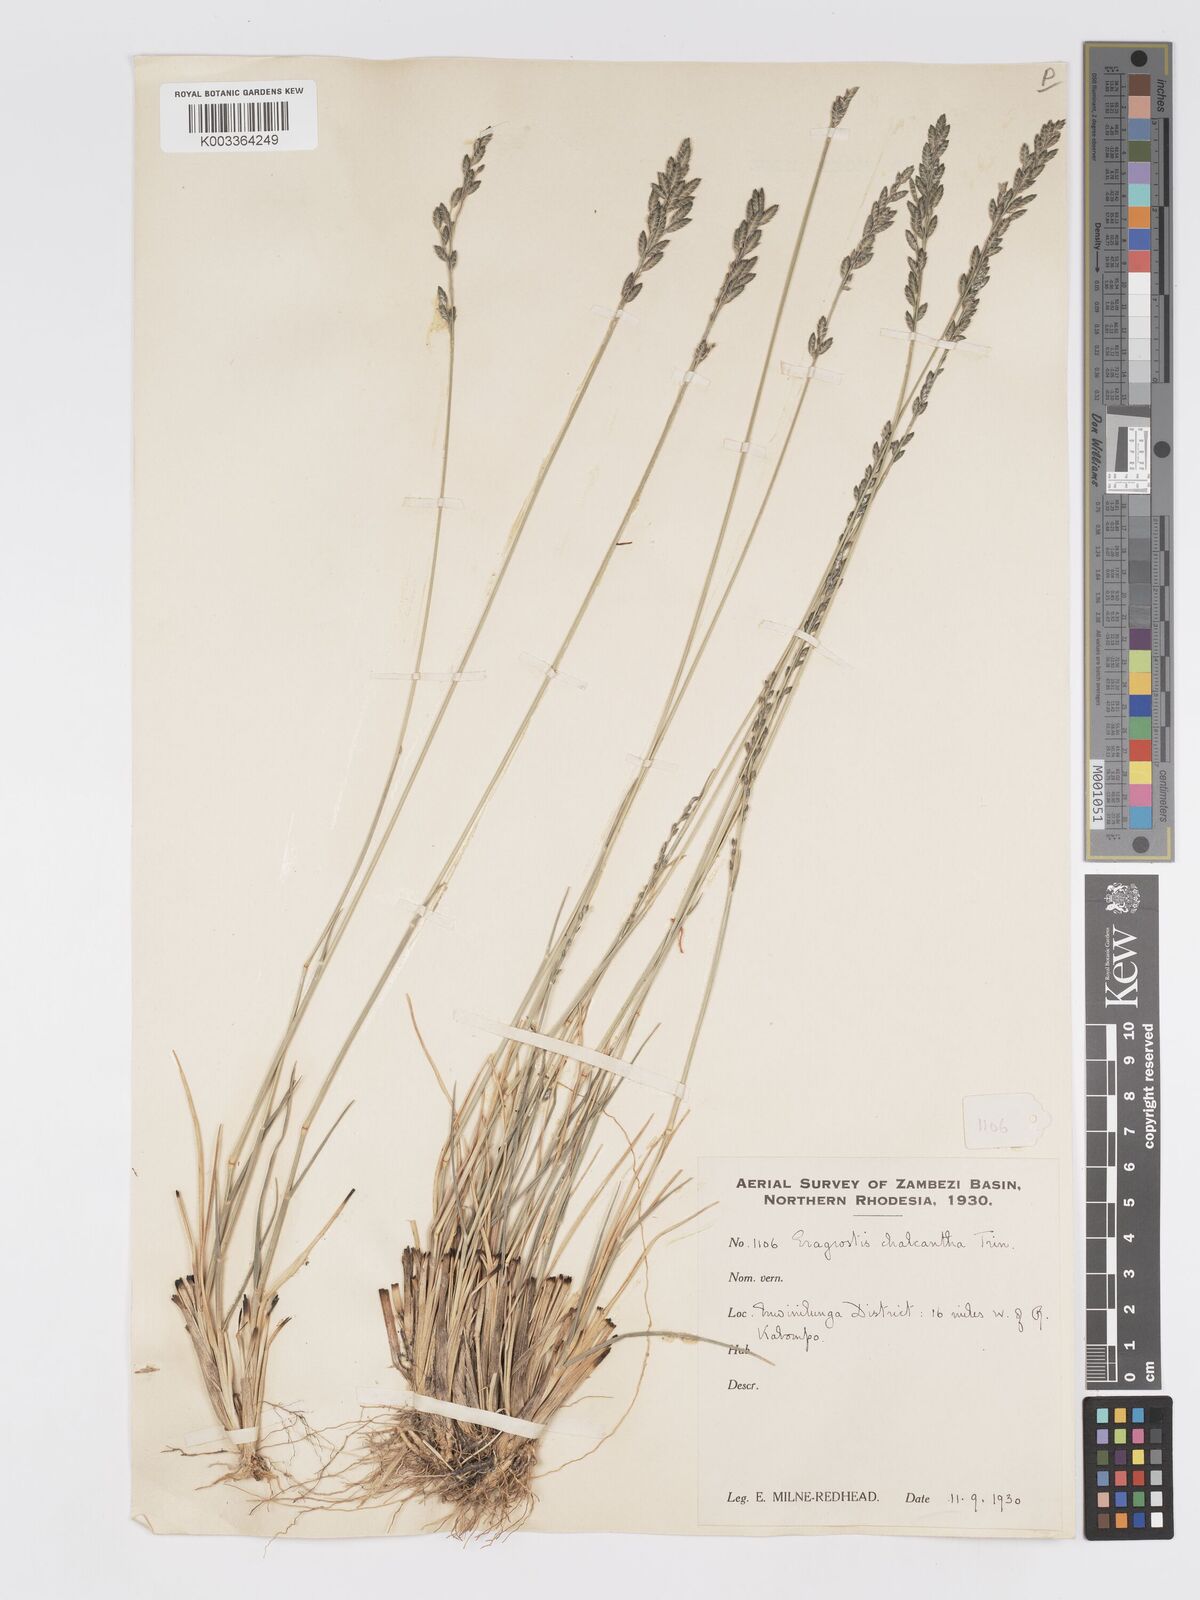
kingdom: Plantae
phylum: Tracheophyta
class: Liliopsida
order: Poales
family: Poaceae
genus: Eragrostis
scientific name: Eragrostis racemosa
